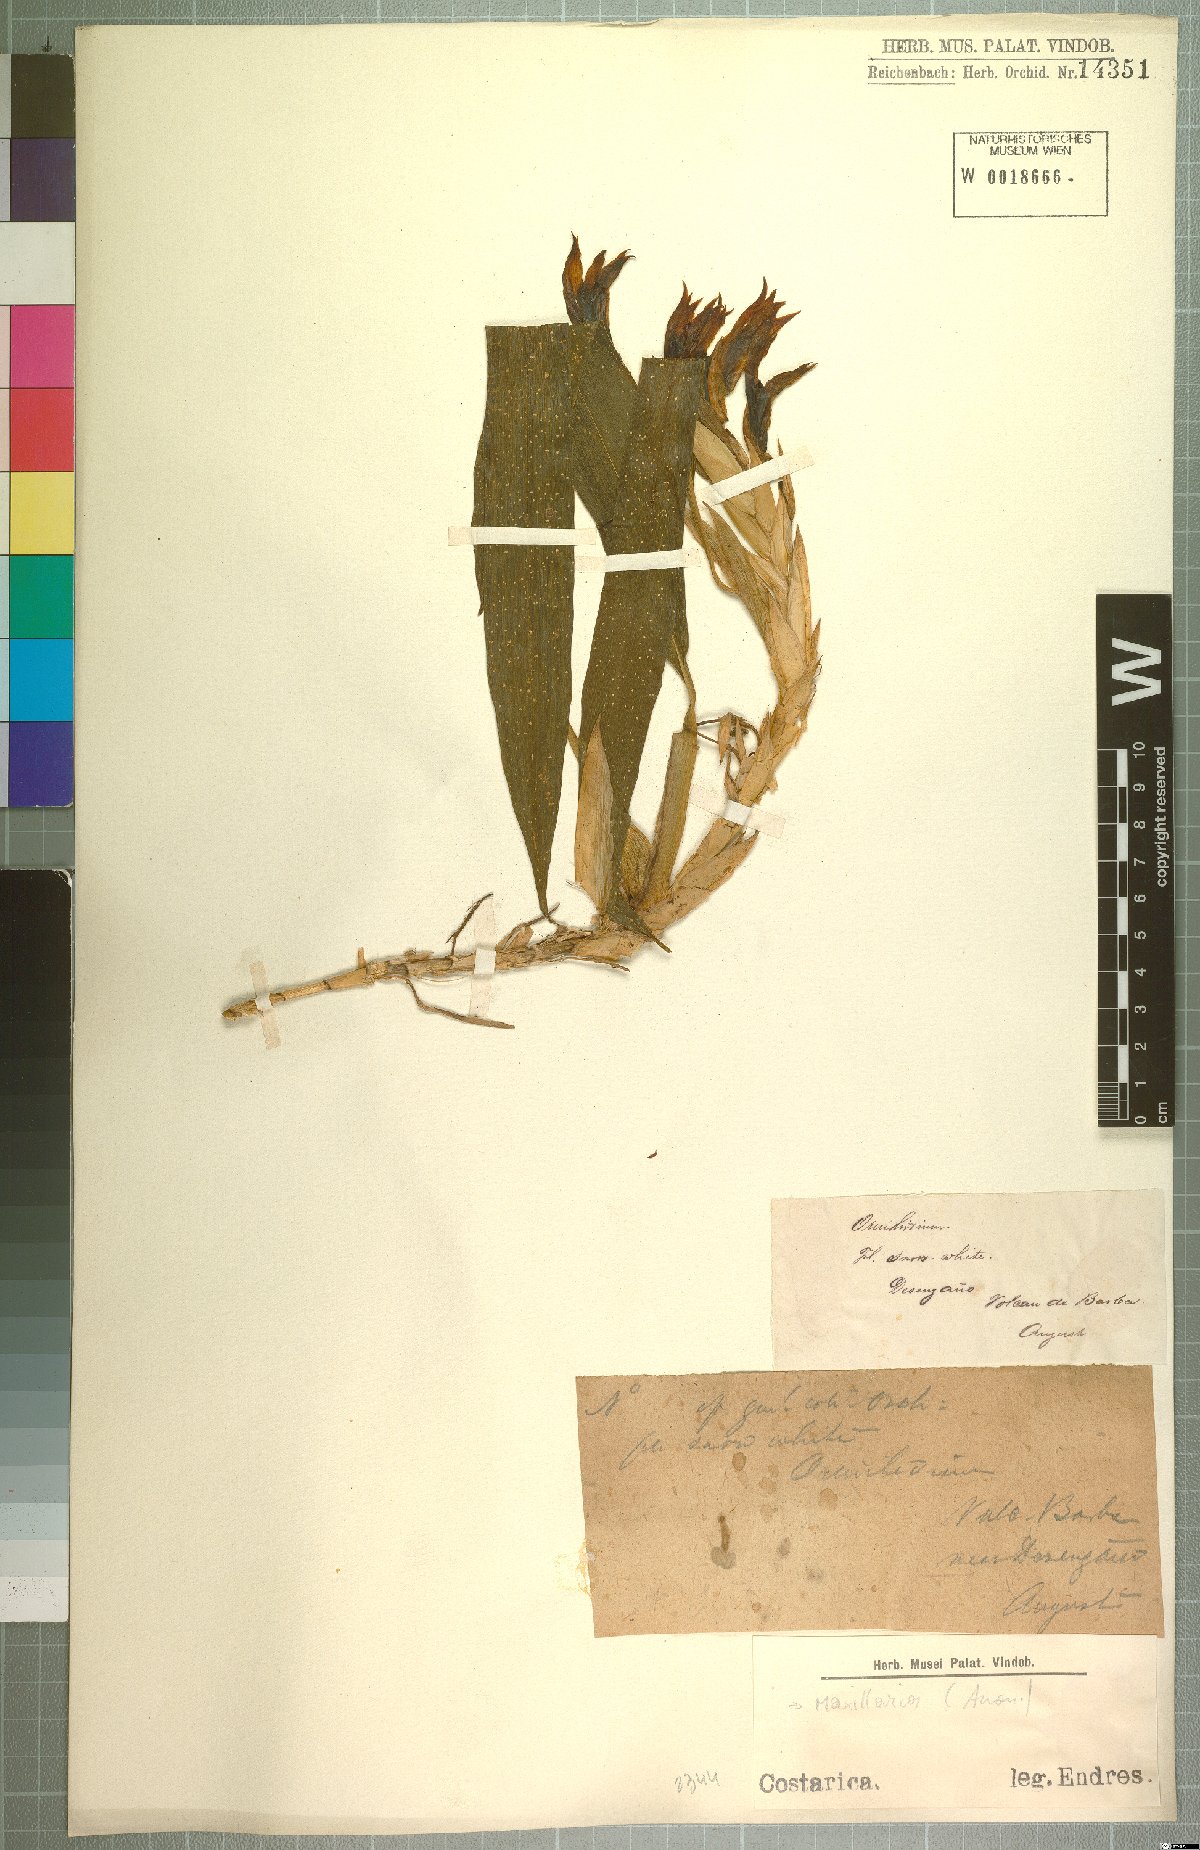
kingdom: Plantae
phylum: Tracheophyta
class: Liliopsida
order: Asparagales
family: Orchidaceae
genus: Maxillaria
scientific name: Maxillaria
